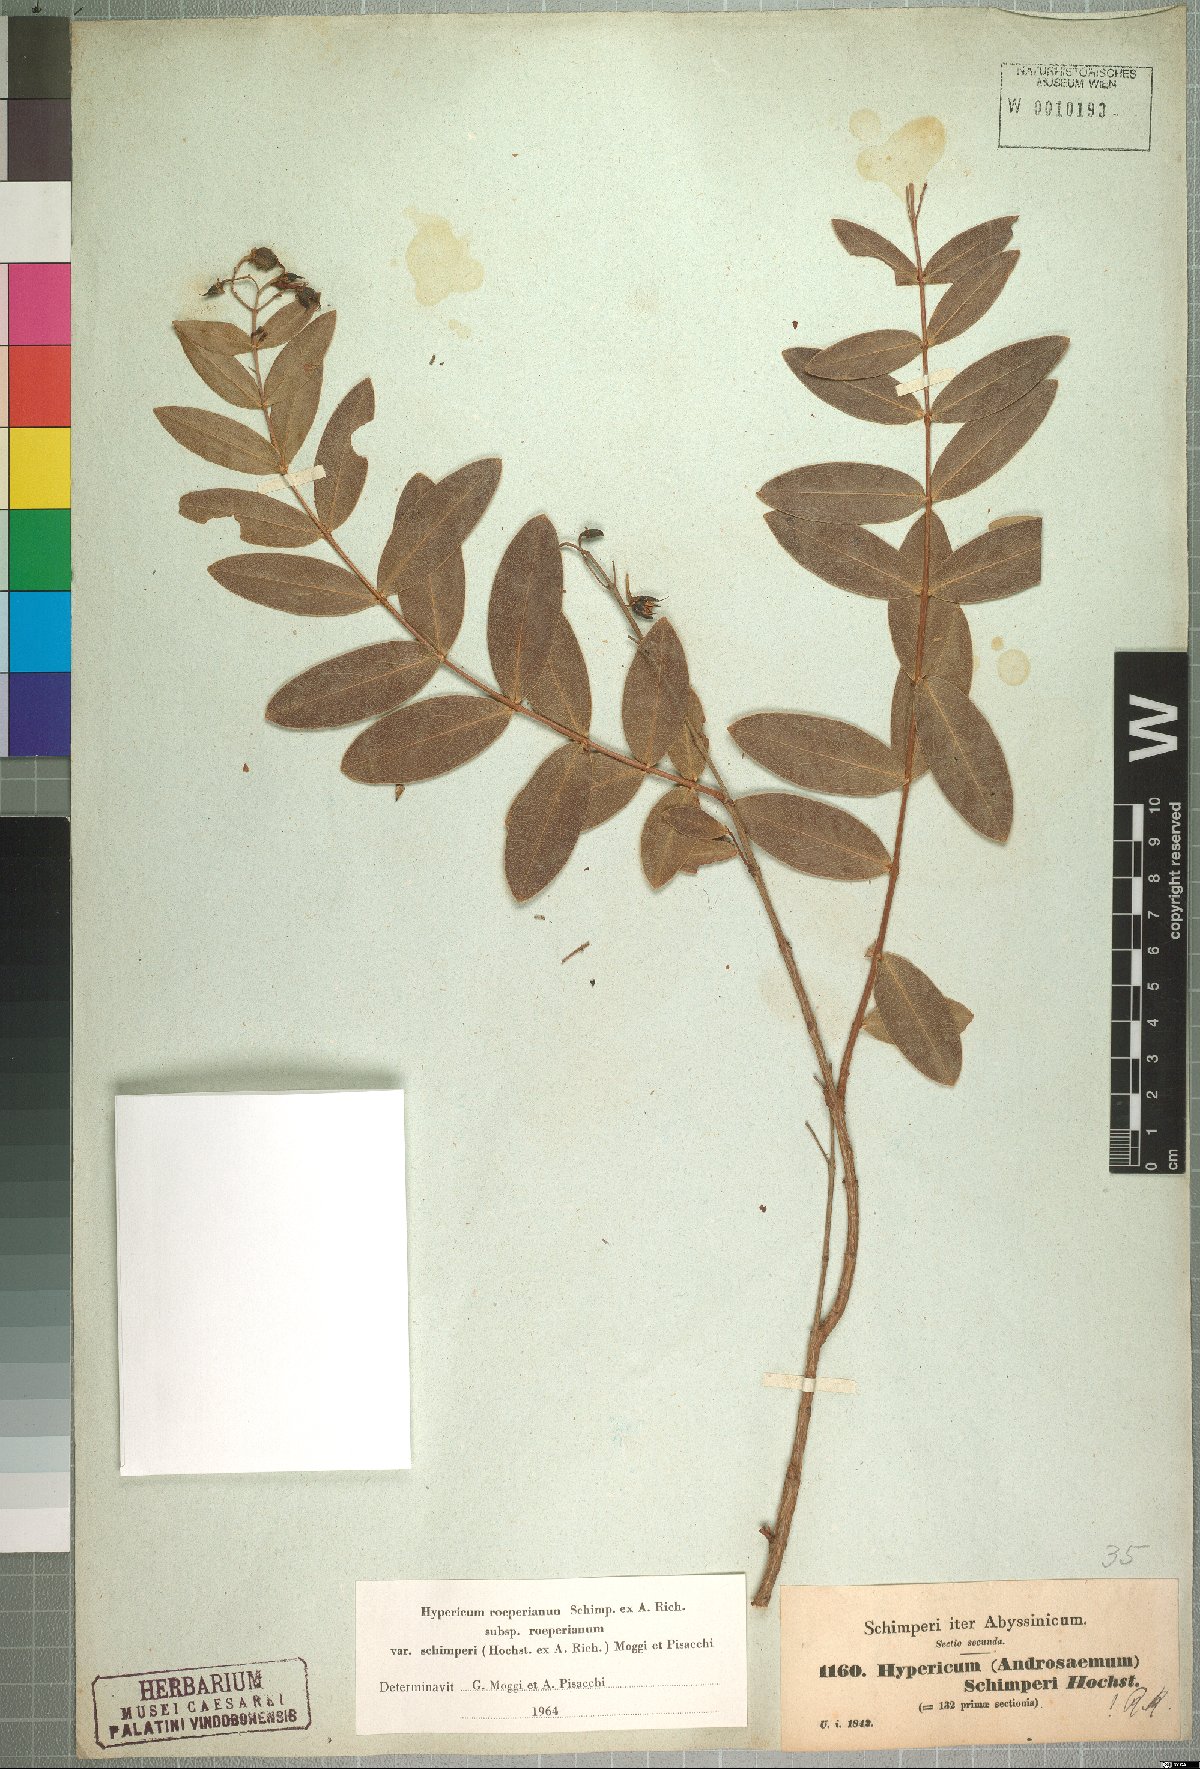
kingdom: Plantae
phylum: Tracheophyta
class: Magnoliopsida
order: Malpighiales
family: Hypericaceae
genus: Hypericum
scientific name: Hypericum roeperianum
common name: Large-leaved curry-bush
